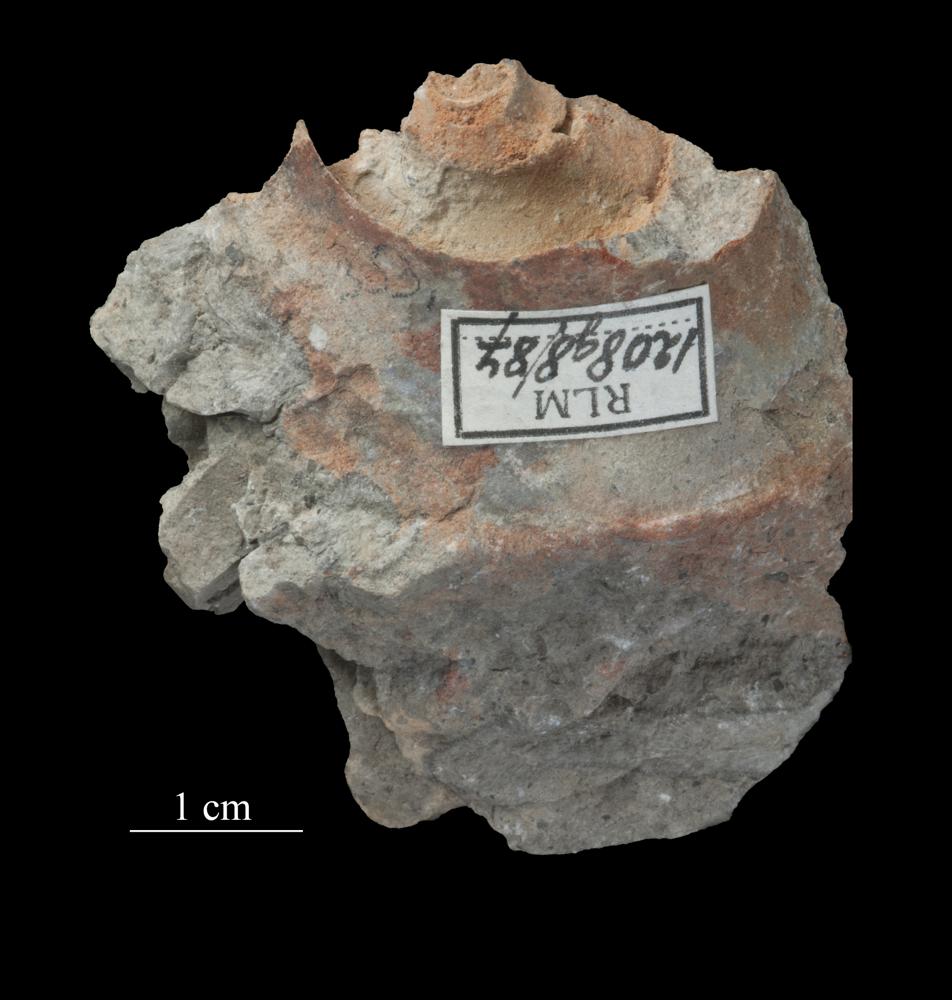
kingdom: Animalia
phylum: Mollusca
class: Gastropoda
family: Lesueurillidae
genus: Mestoronema
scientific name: Mestoronema Euomphalus marginalis
